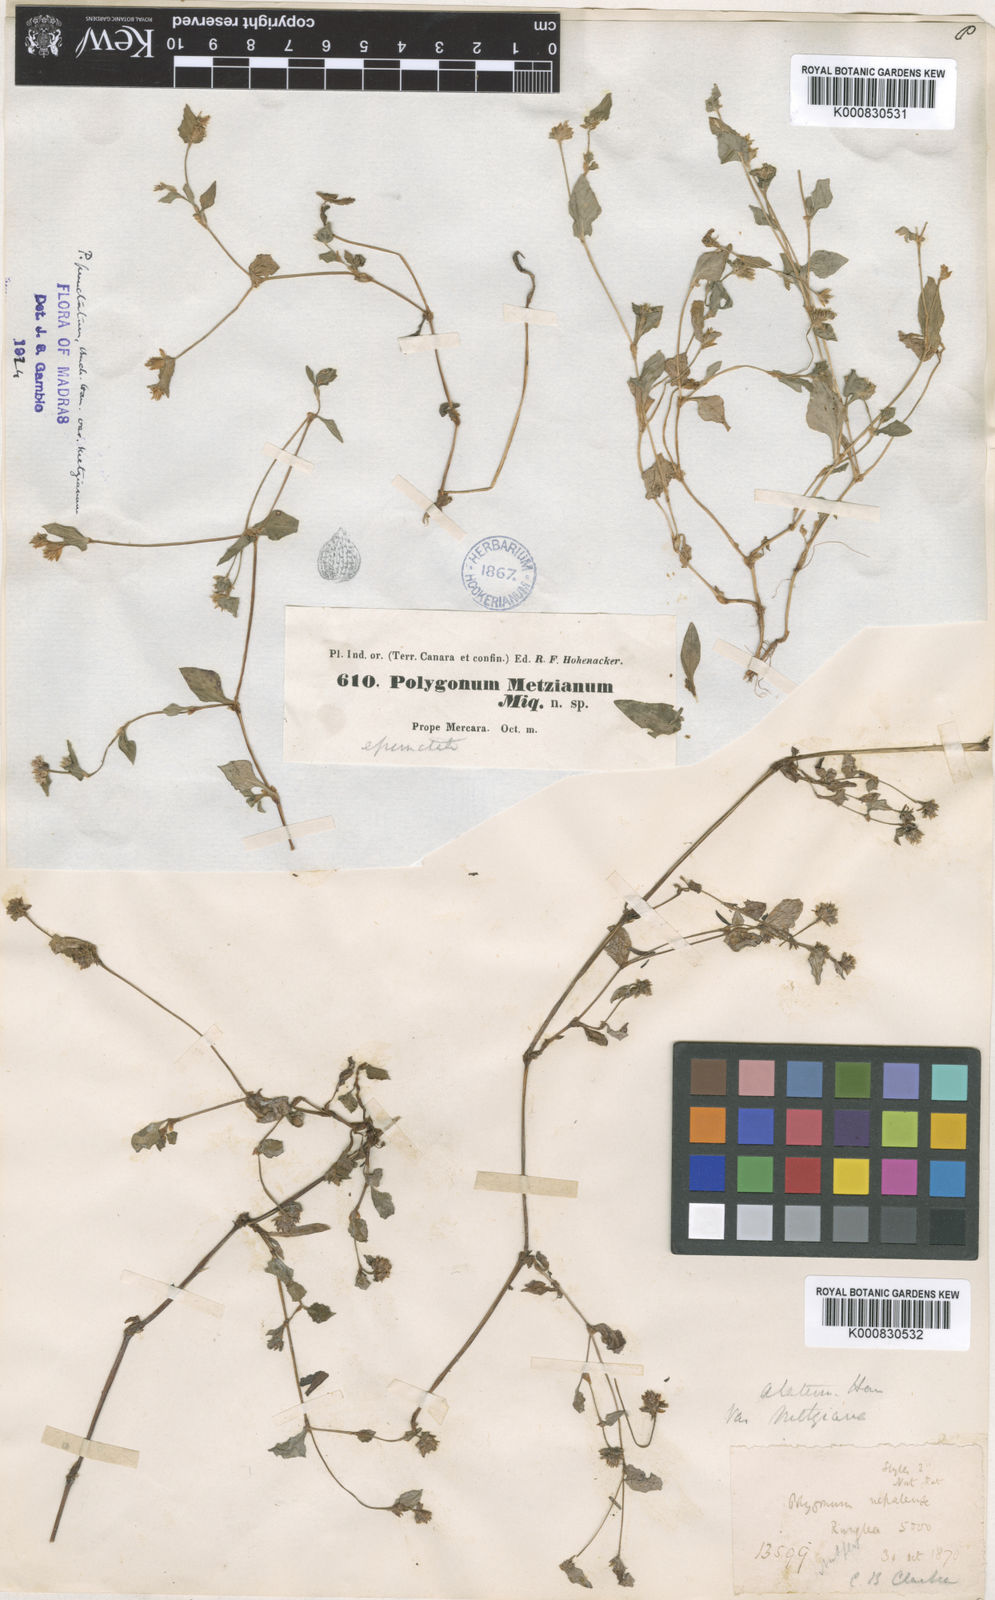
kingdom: Plantae
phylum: Tracheophyta
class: Magnoliopsida
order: Caryophyllales
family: Polygonaceae
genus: Polygonum
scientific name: Polygonum
